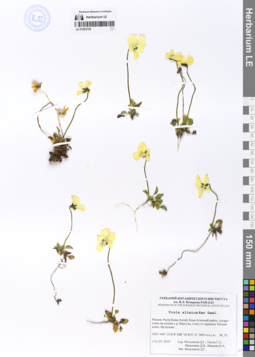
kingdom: Plantae
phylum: Tracheophyta
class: Magnoliopsida
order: Malpighiales
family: Violaceae
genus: Viola
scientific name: Viola altaica
